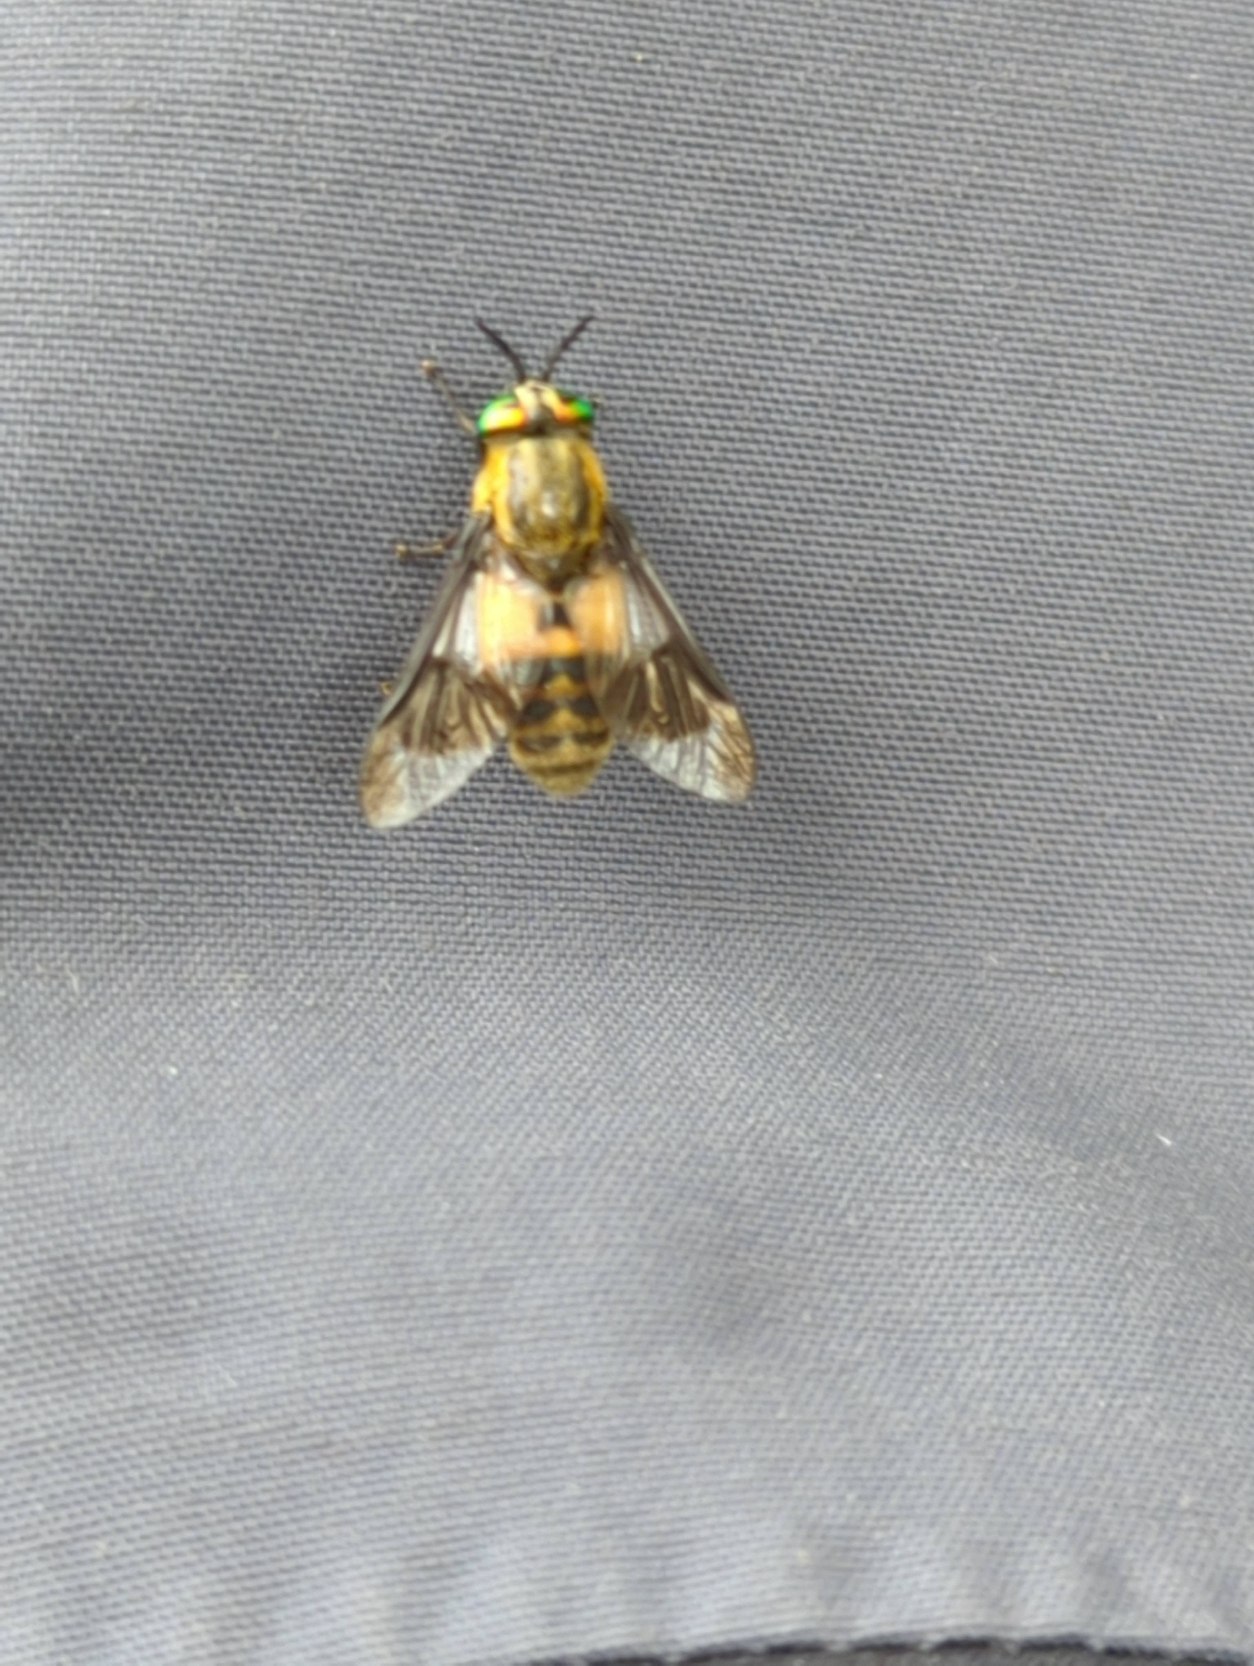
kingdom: Animalia
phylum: Arthropoda
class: Insecta
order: Diptera
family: Tabanidae
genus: Chrysops
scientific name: Chrysops viduatus
